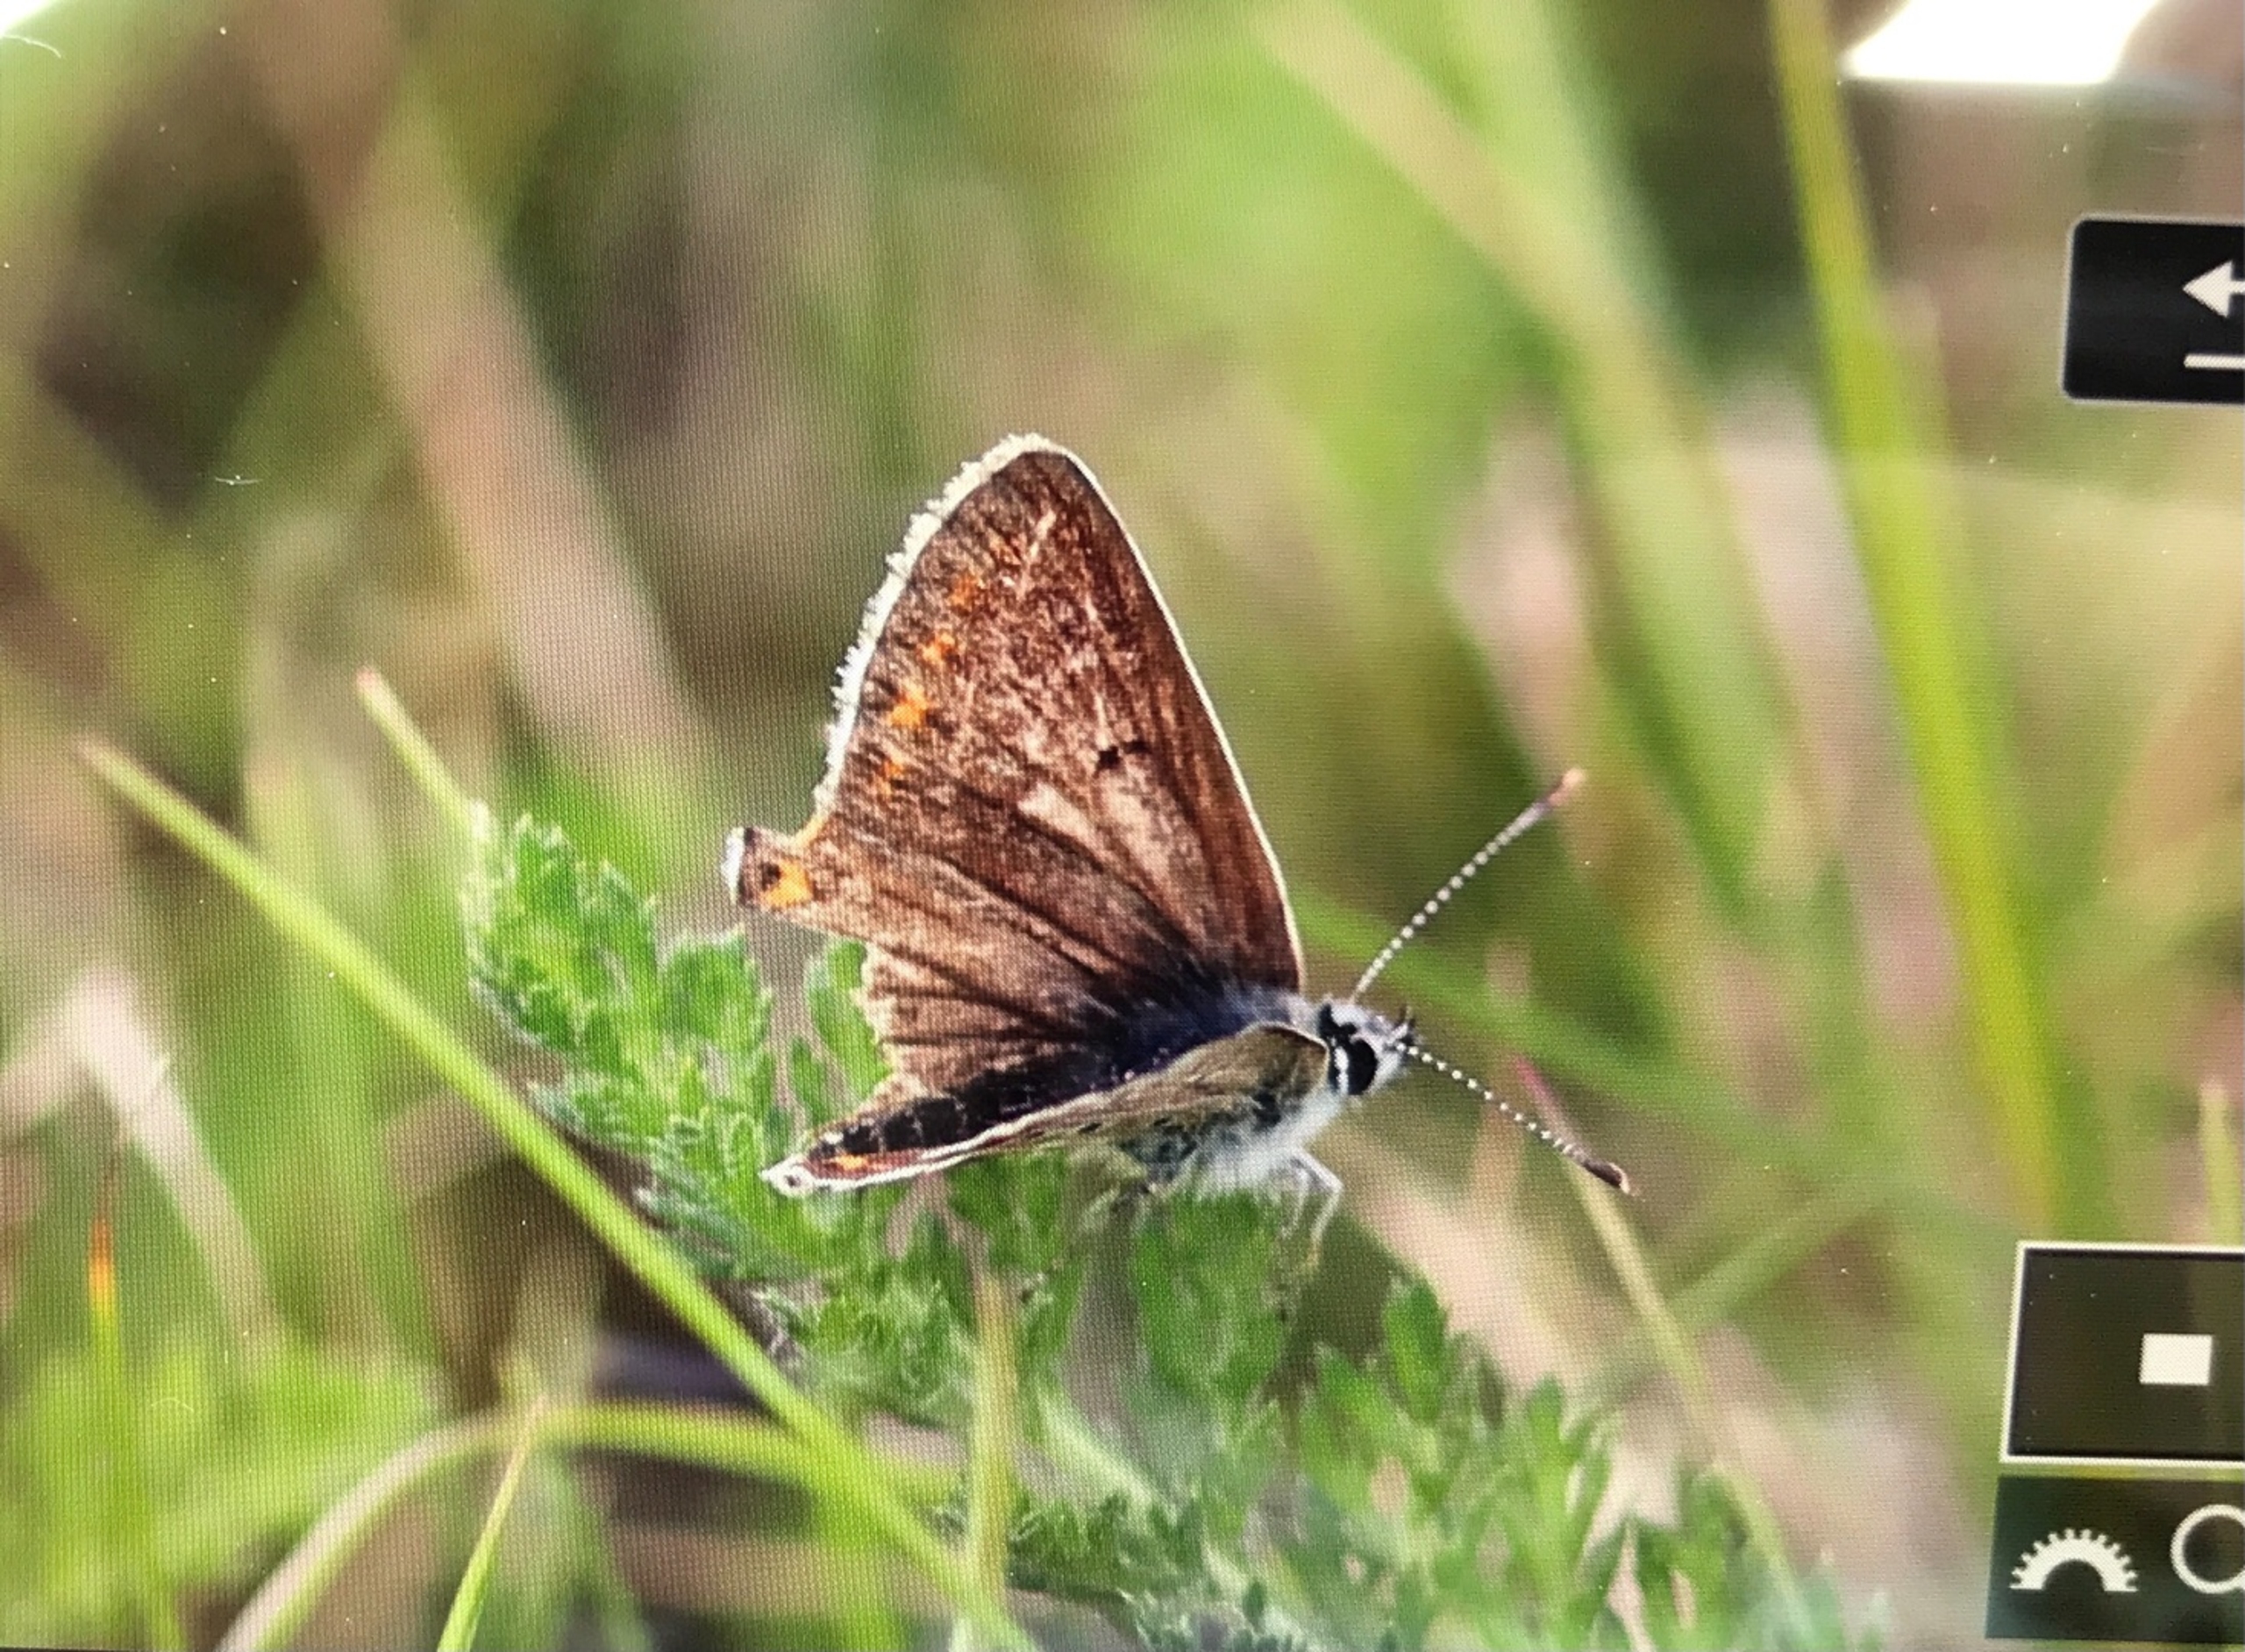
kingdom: Animalia
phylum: Arthropoda
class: Insecta
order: Lepidoptera
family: Lycaenidae
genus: Polyommatus
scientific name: Polyommatus icarus
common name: Almindelig blåfugl
